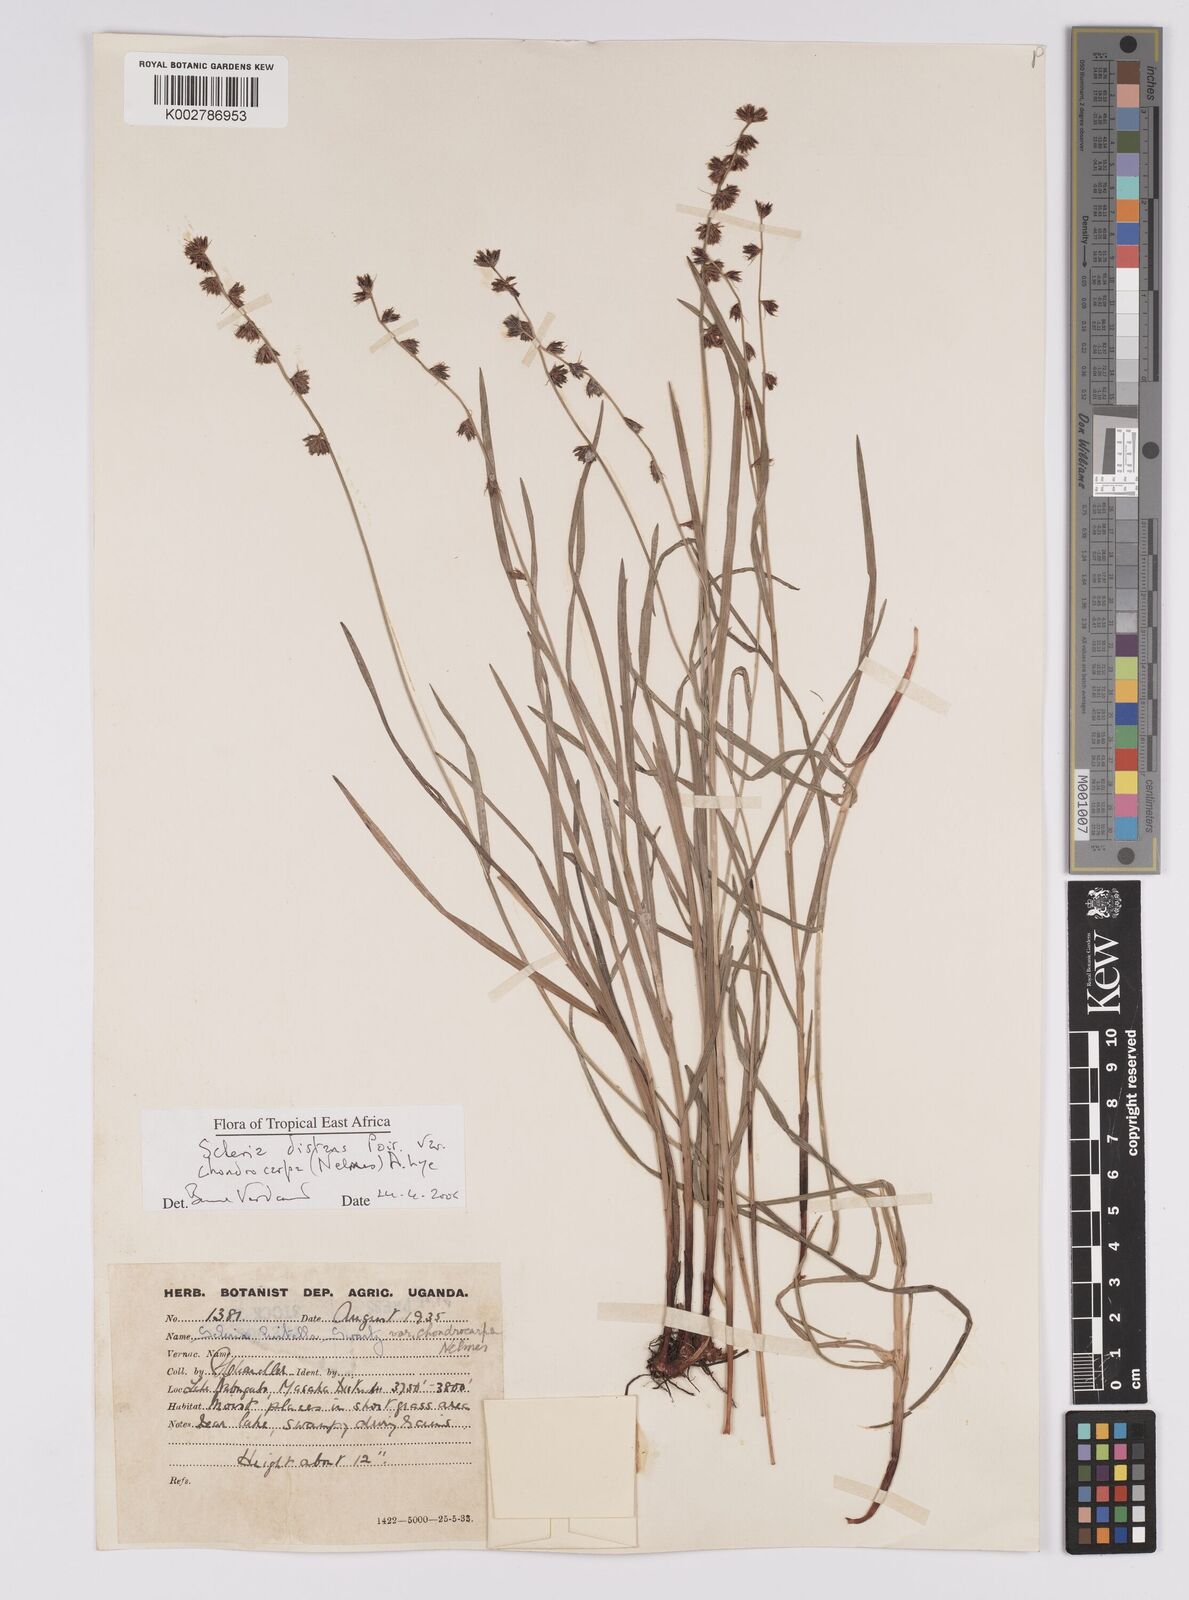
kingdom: Plantae
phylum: Tracheophyta
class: Liliopsida
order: Poales
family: Cyperaceae
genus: Scleria
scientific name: Scleria distans
